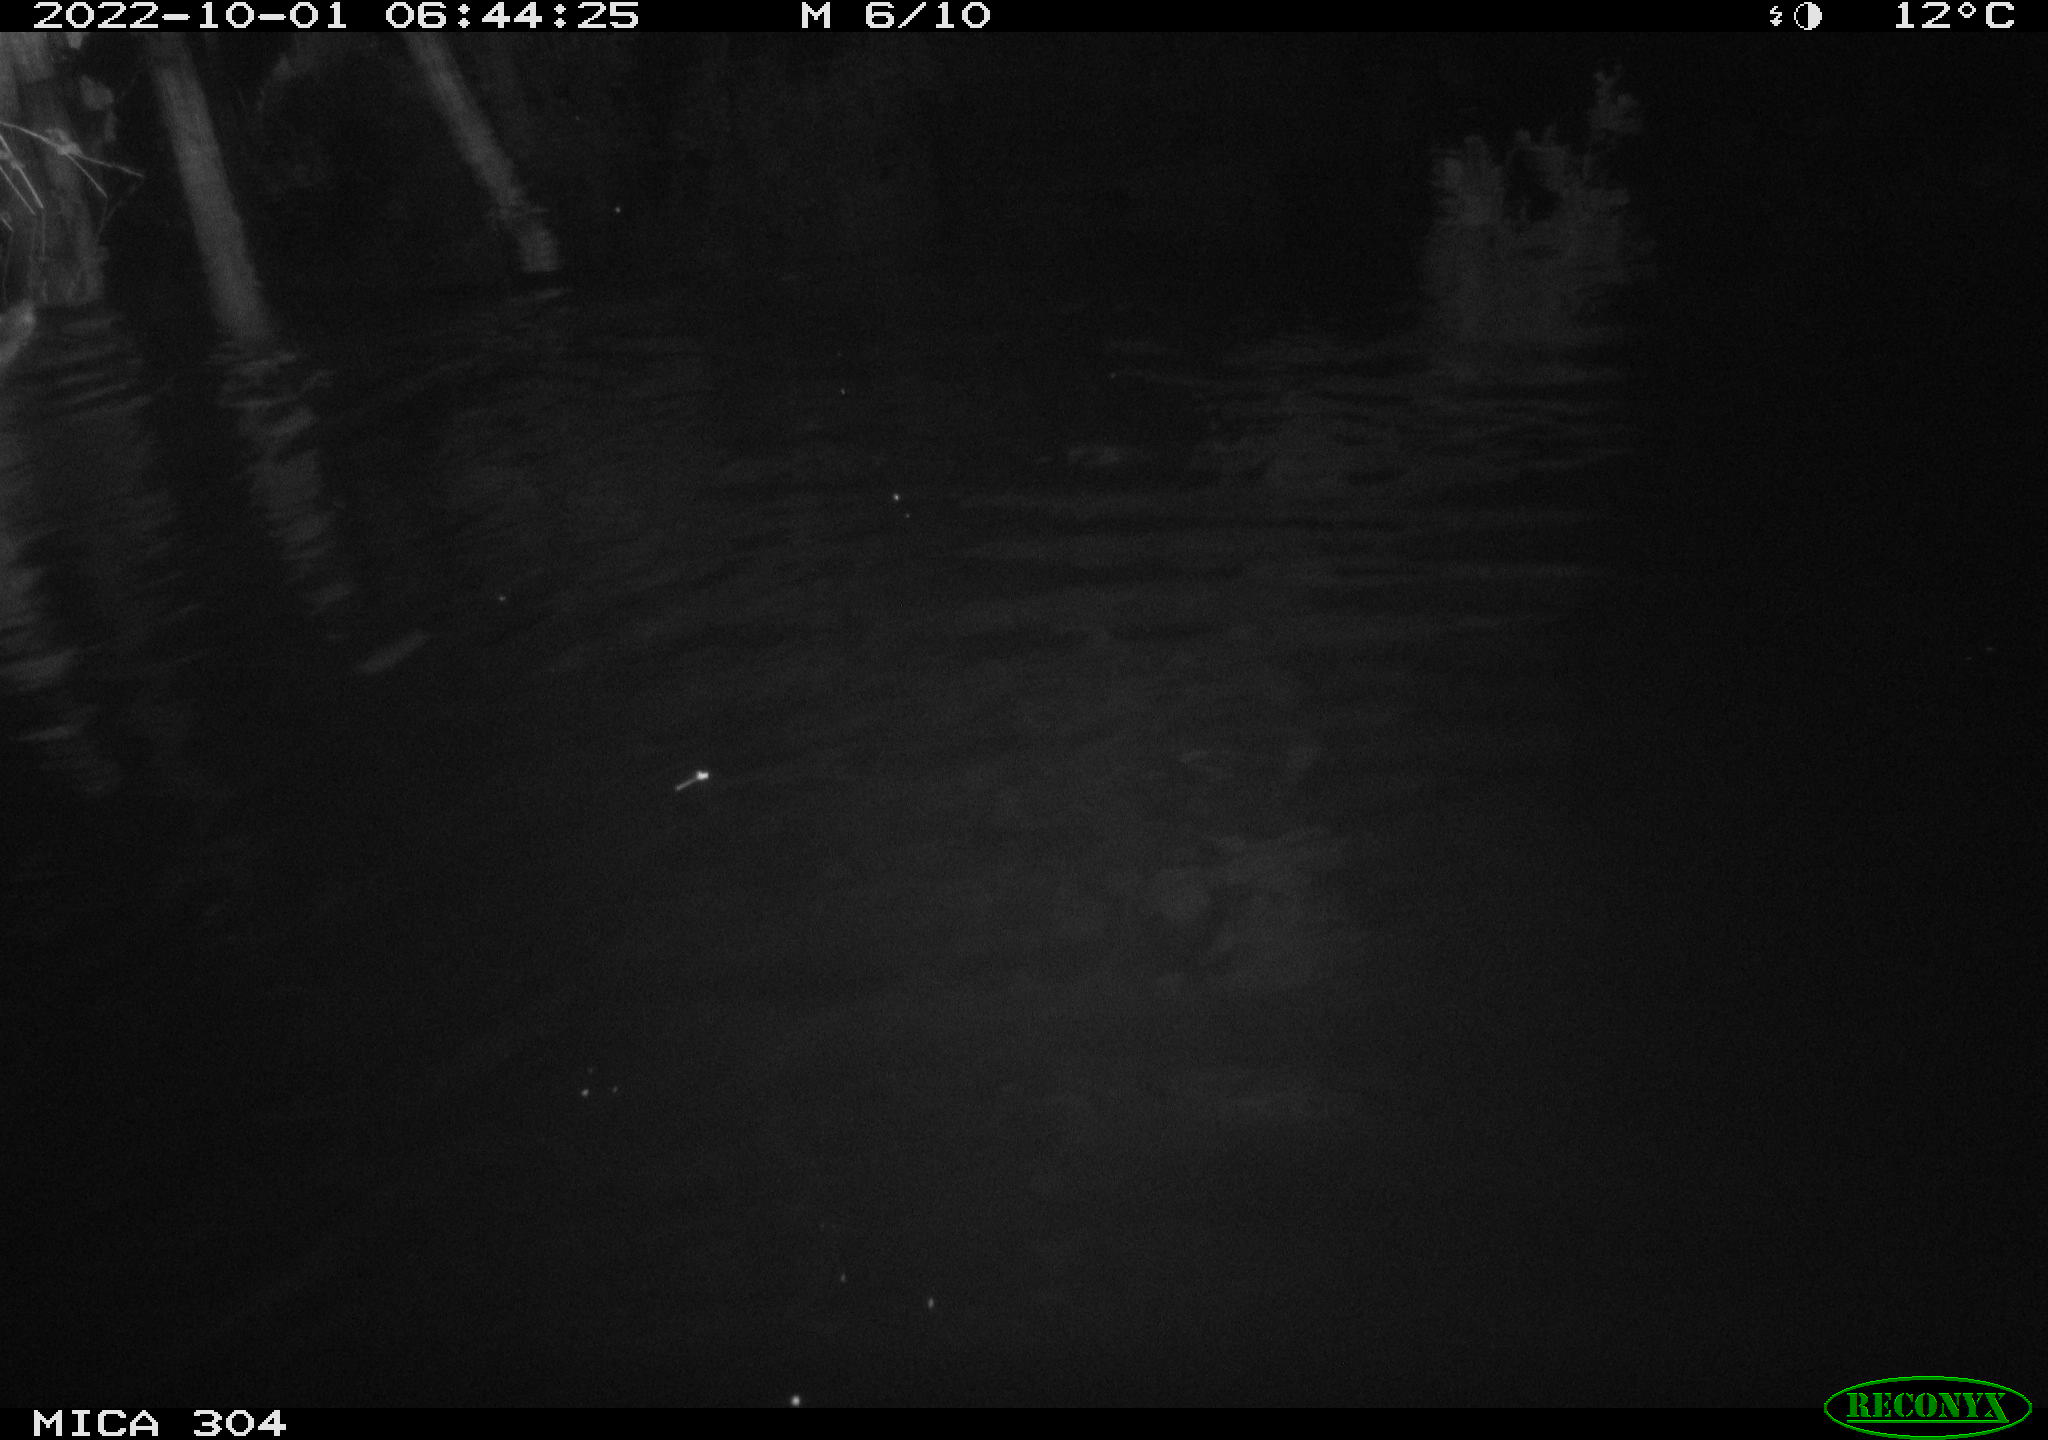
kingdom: Animalia
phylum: Chordata
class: Mammalia
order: Rodentia
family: Muridae
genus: Rattus
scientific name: Rattus norvegicus
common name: Brown rat
